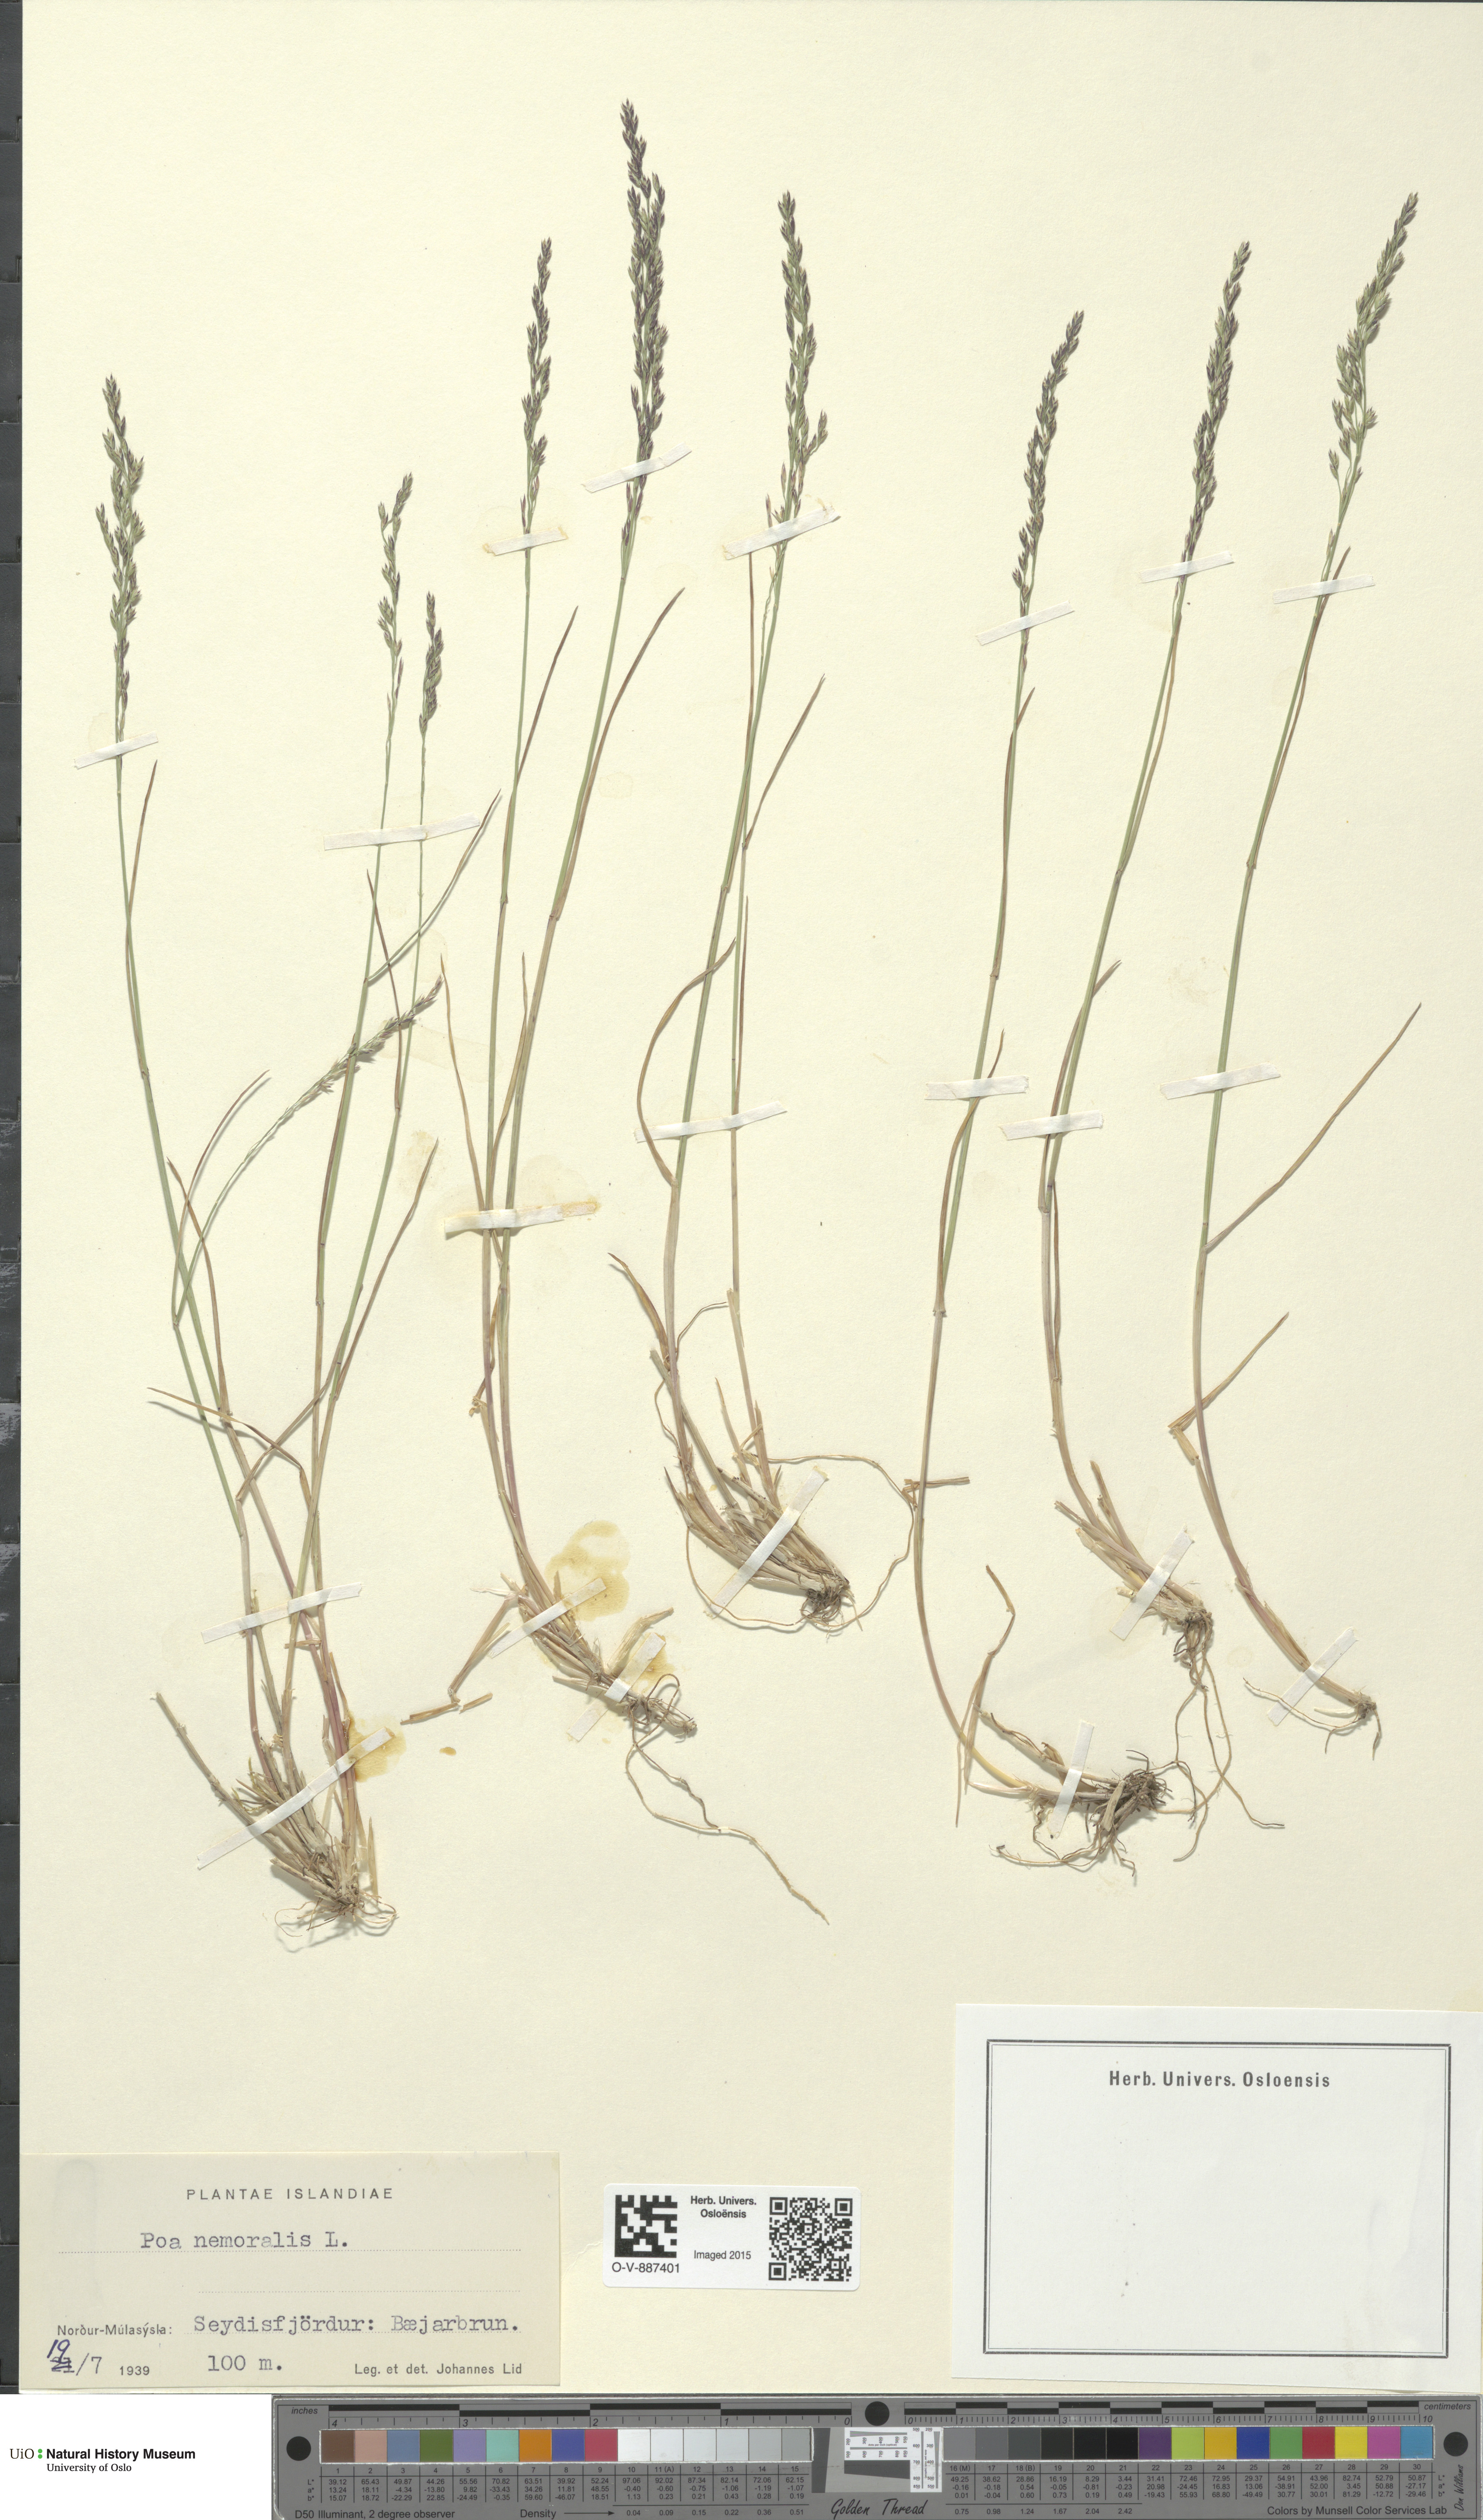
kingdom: Plantae
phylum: Tracheophyta
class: Liliopsida
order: Poales
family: Poaceae
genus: Poa
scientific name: Poa nemoralis
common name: Wood bluegrass
